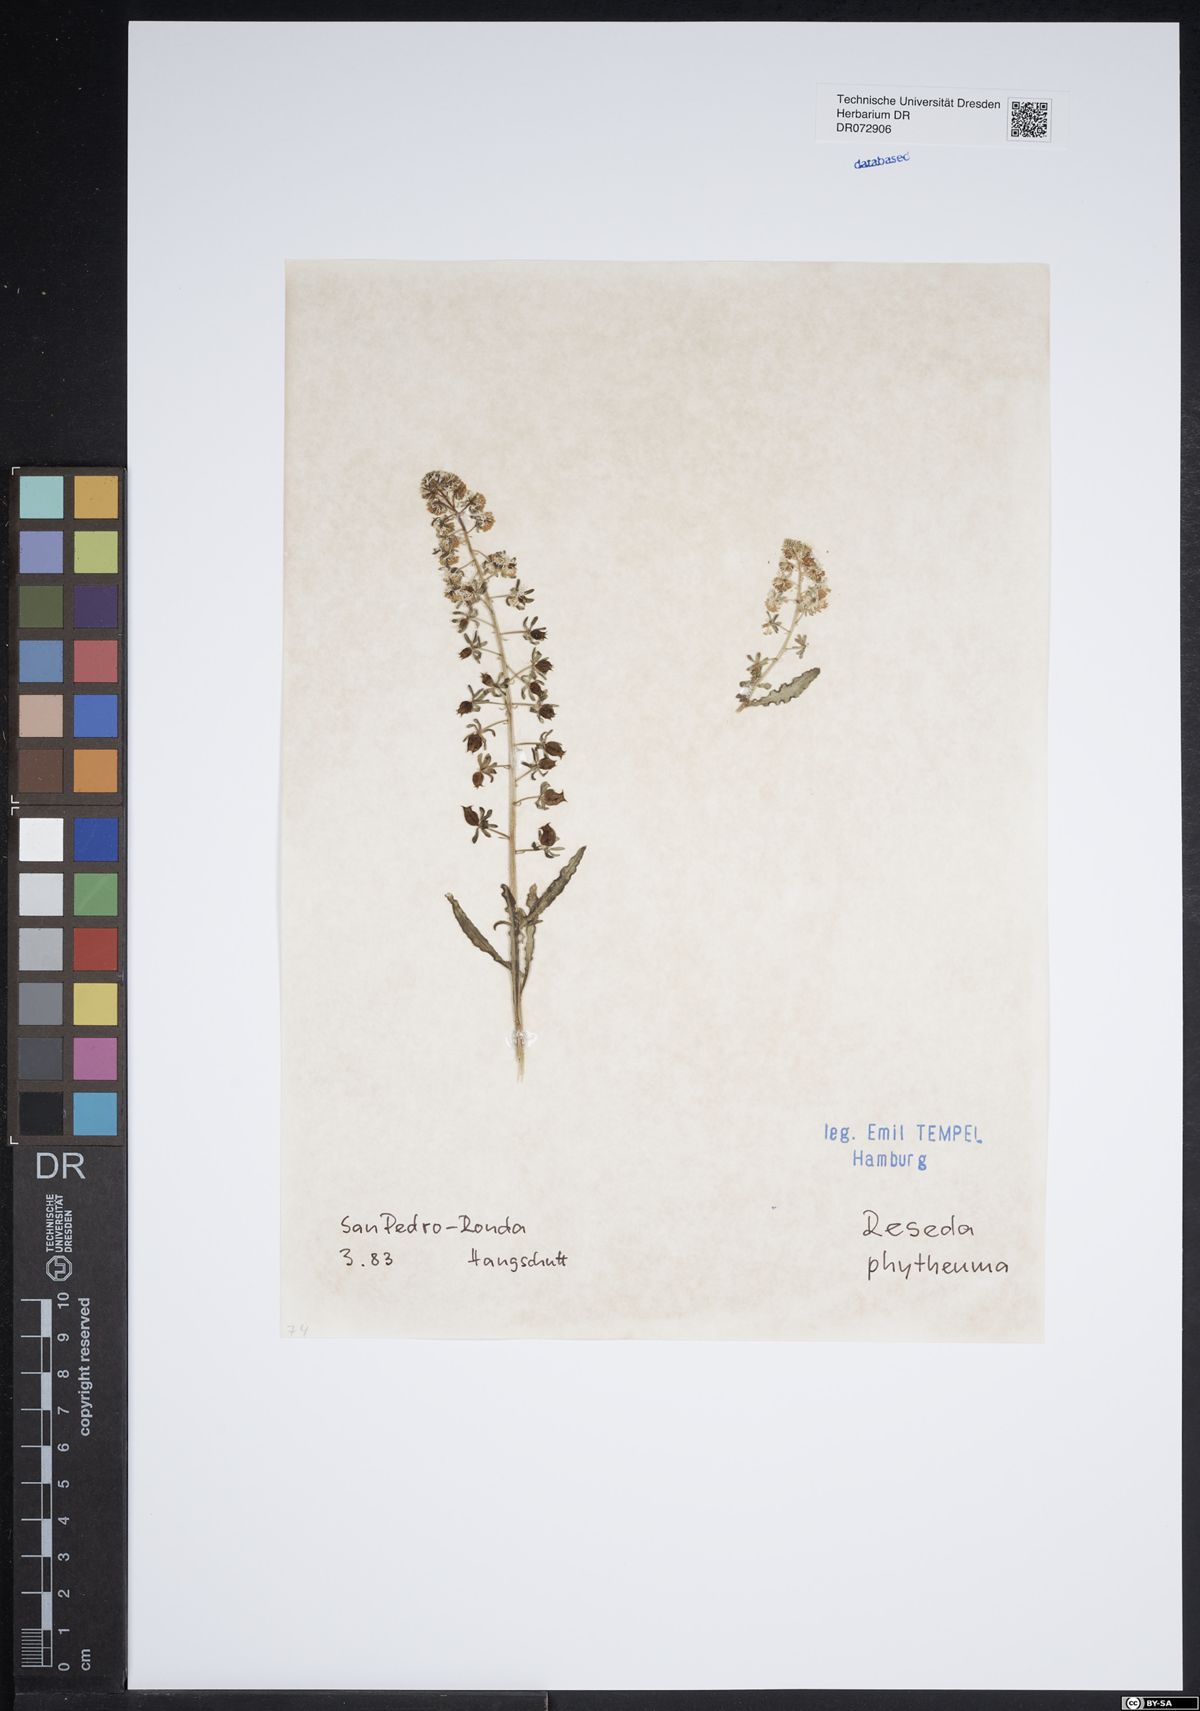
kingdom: Plantae
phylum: Tracheophyta
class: Magnoliopsida
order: Brassicales
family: Resedaceae
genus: Reseda
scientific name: Reseda phyteuma
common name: Corn mignonette
